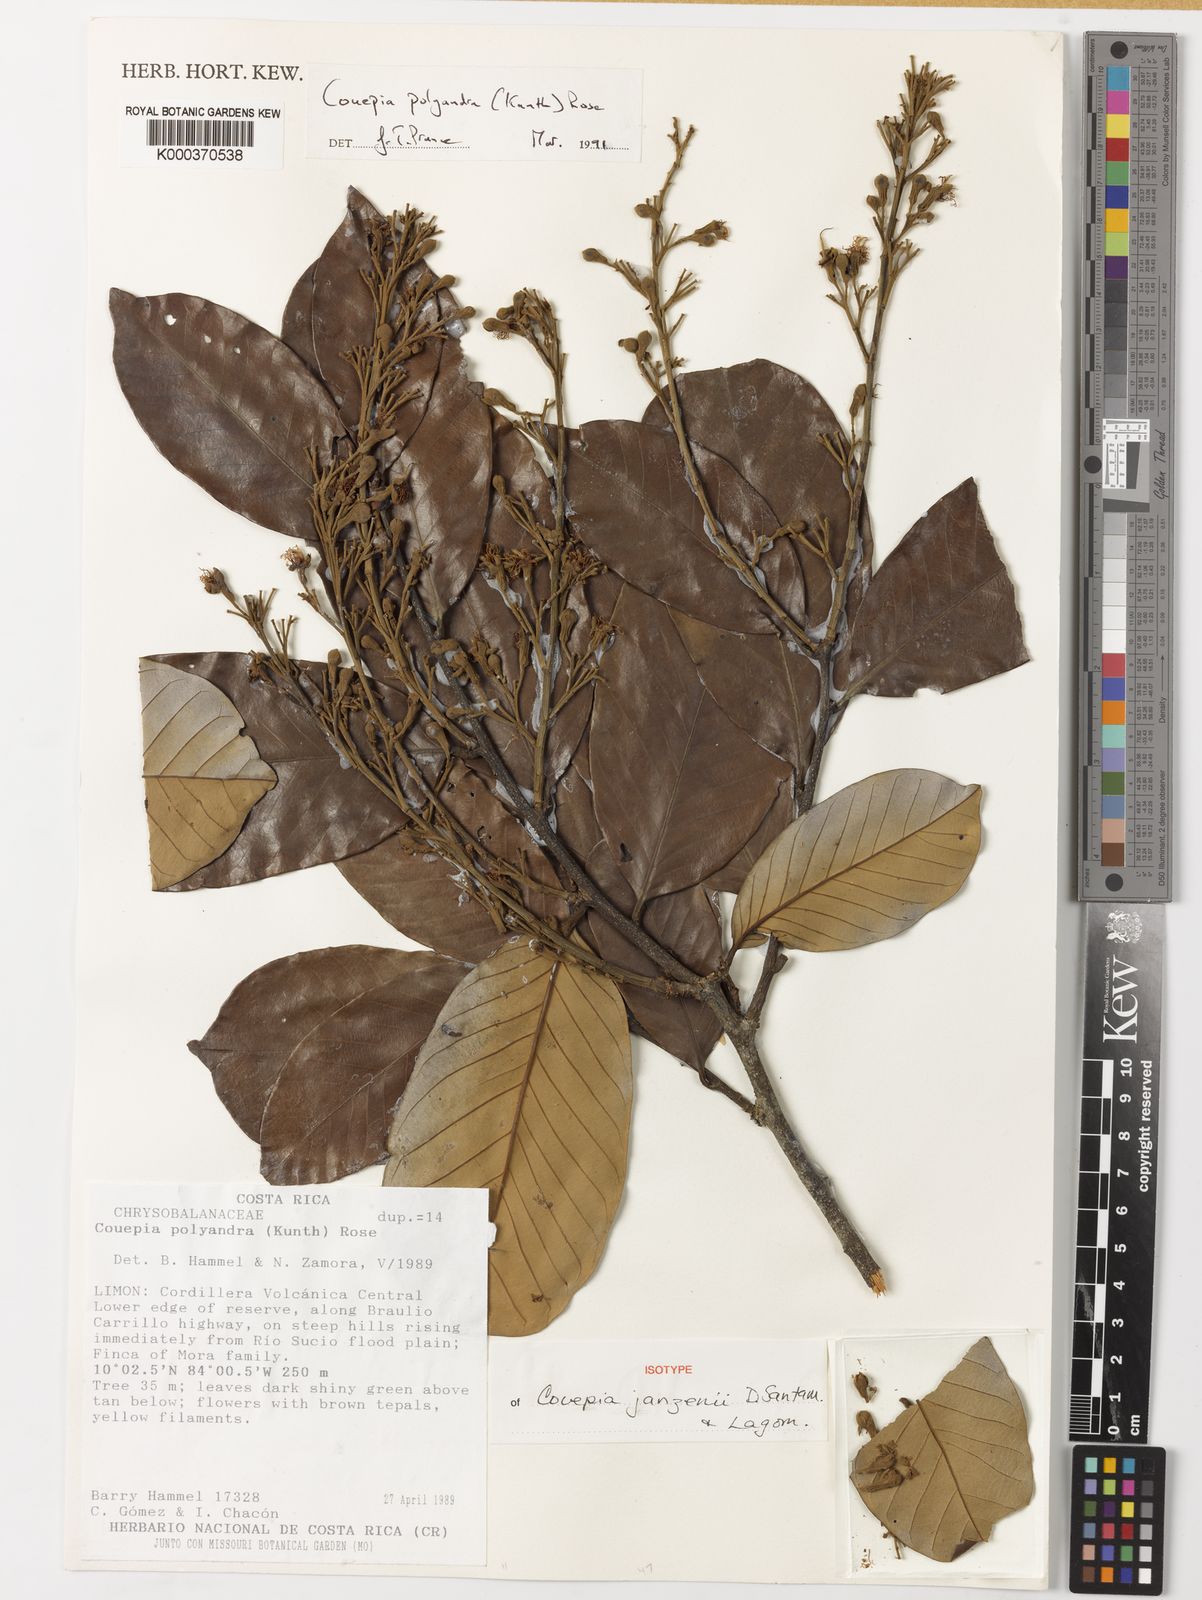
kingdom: Plantae
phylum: Tracheophyta
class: Magnoliopsida
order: Malpighiales
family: Chrysobalanaceae
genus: Couepia
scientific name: Couepia janzenii
